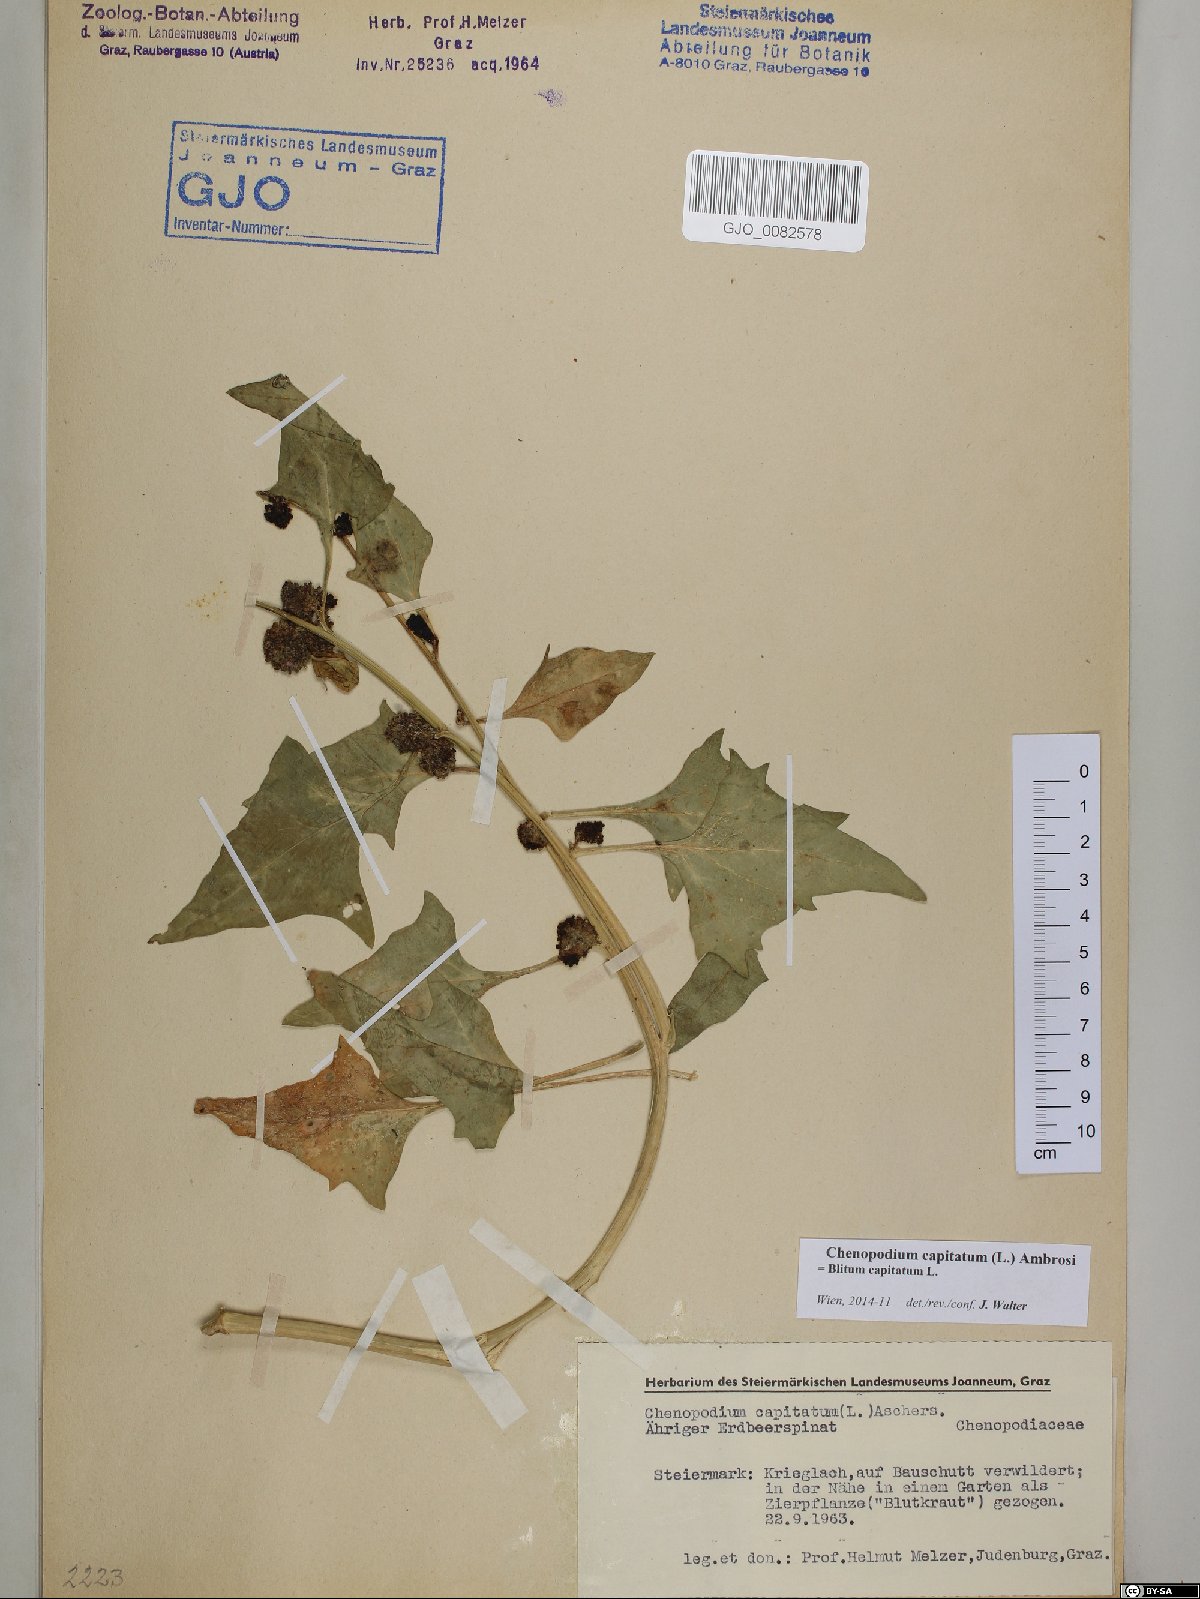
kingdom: Plantae
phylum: Tracheophyta
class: Magnoliopsida
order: Caryophyllales
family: Amaranthaceae
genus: Blitum
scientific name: Blitum capitatum
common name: Strawberry-blight
